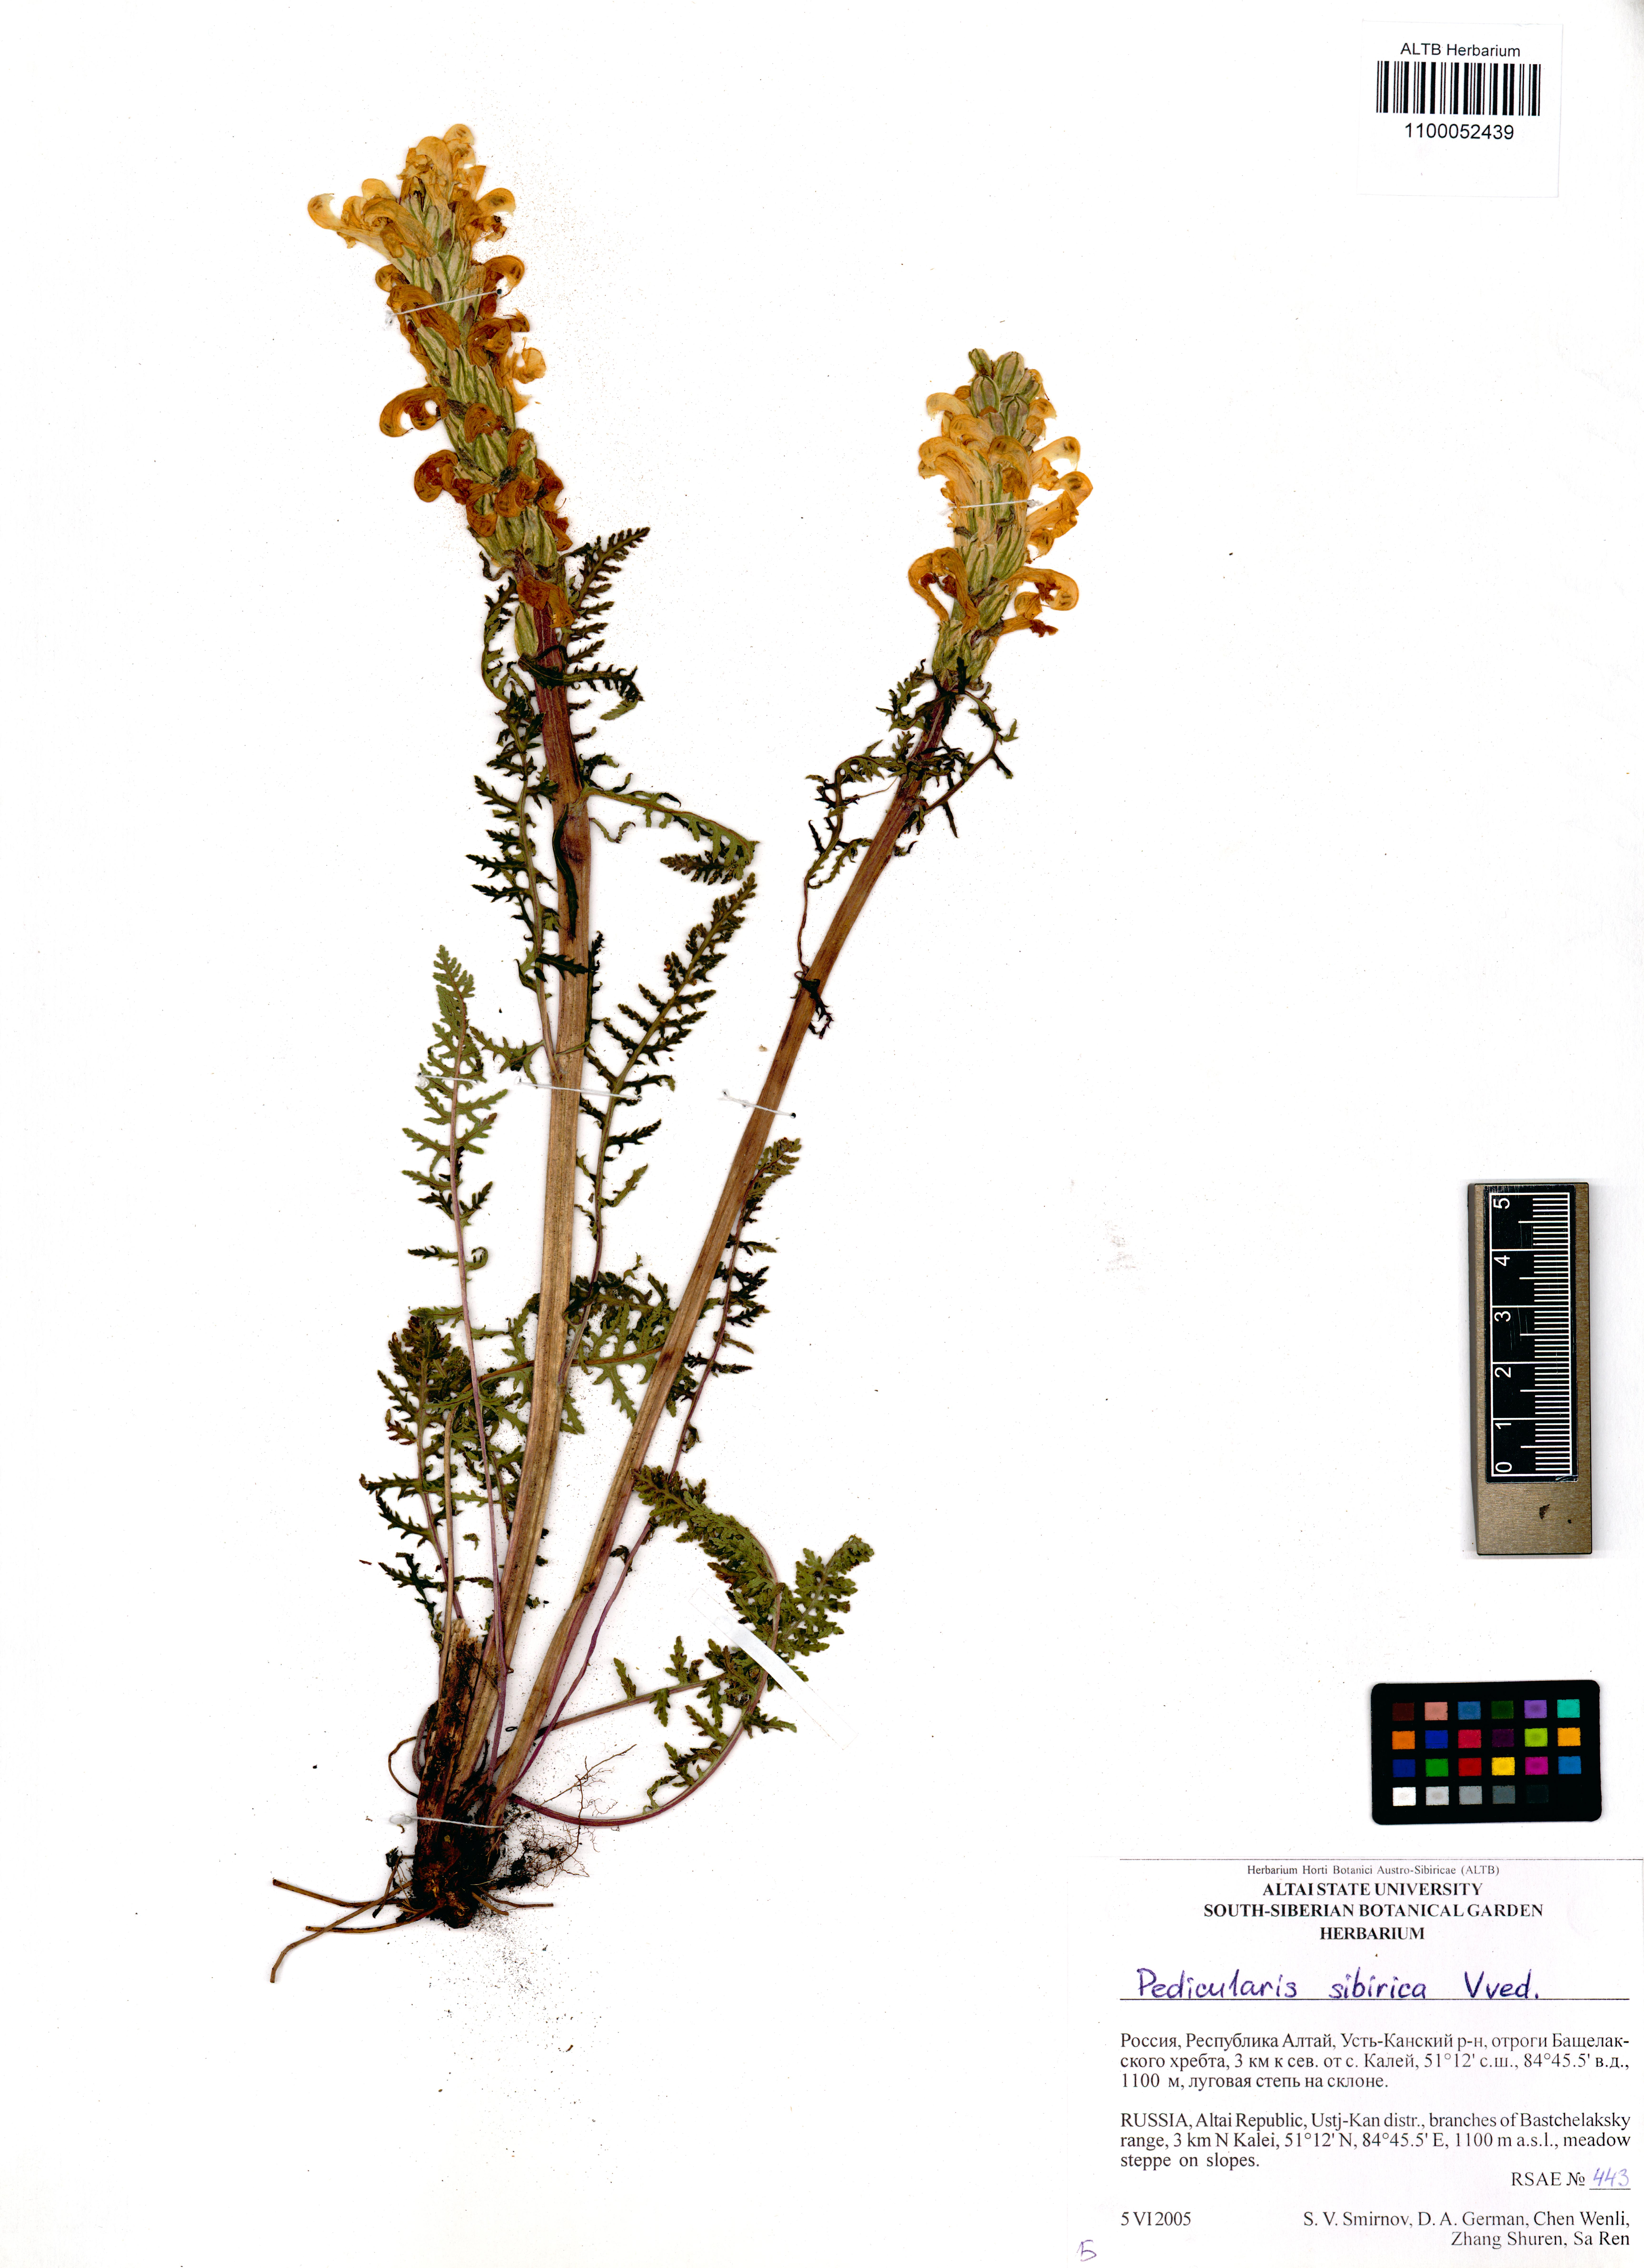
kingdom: Plantae
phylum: Tracheophyta
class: Magnoliopsida
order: Lamiales
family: Orobanchaceae
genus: Pedicularis
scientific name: Pedicularis sibirica
